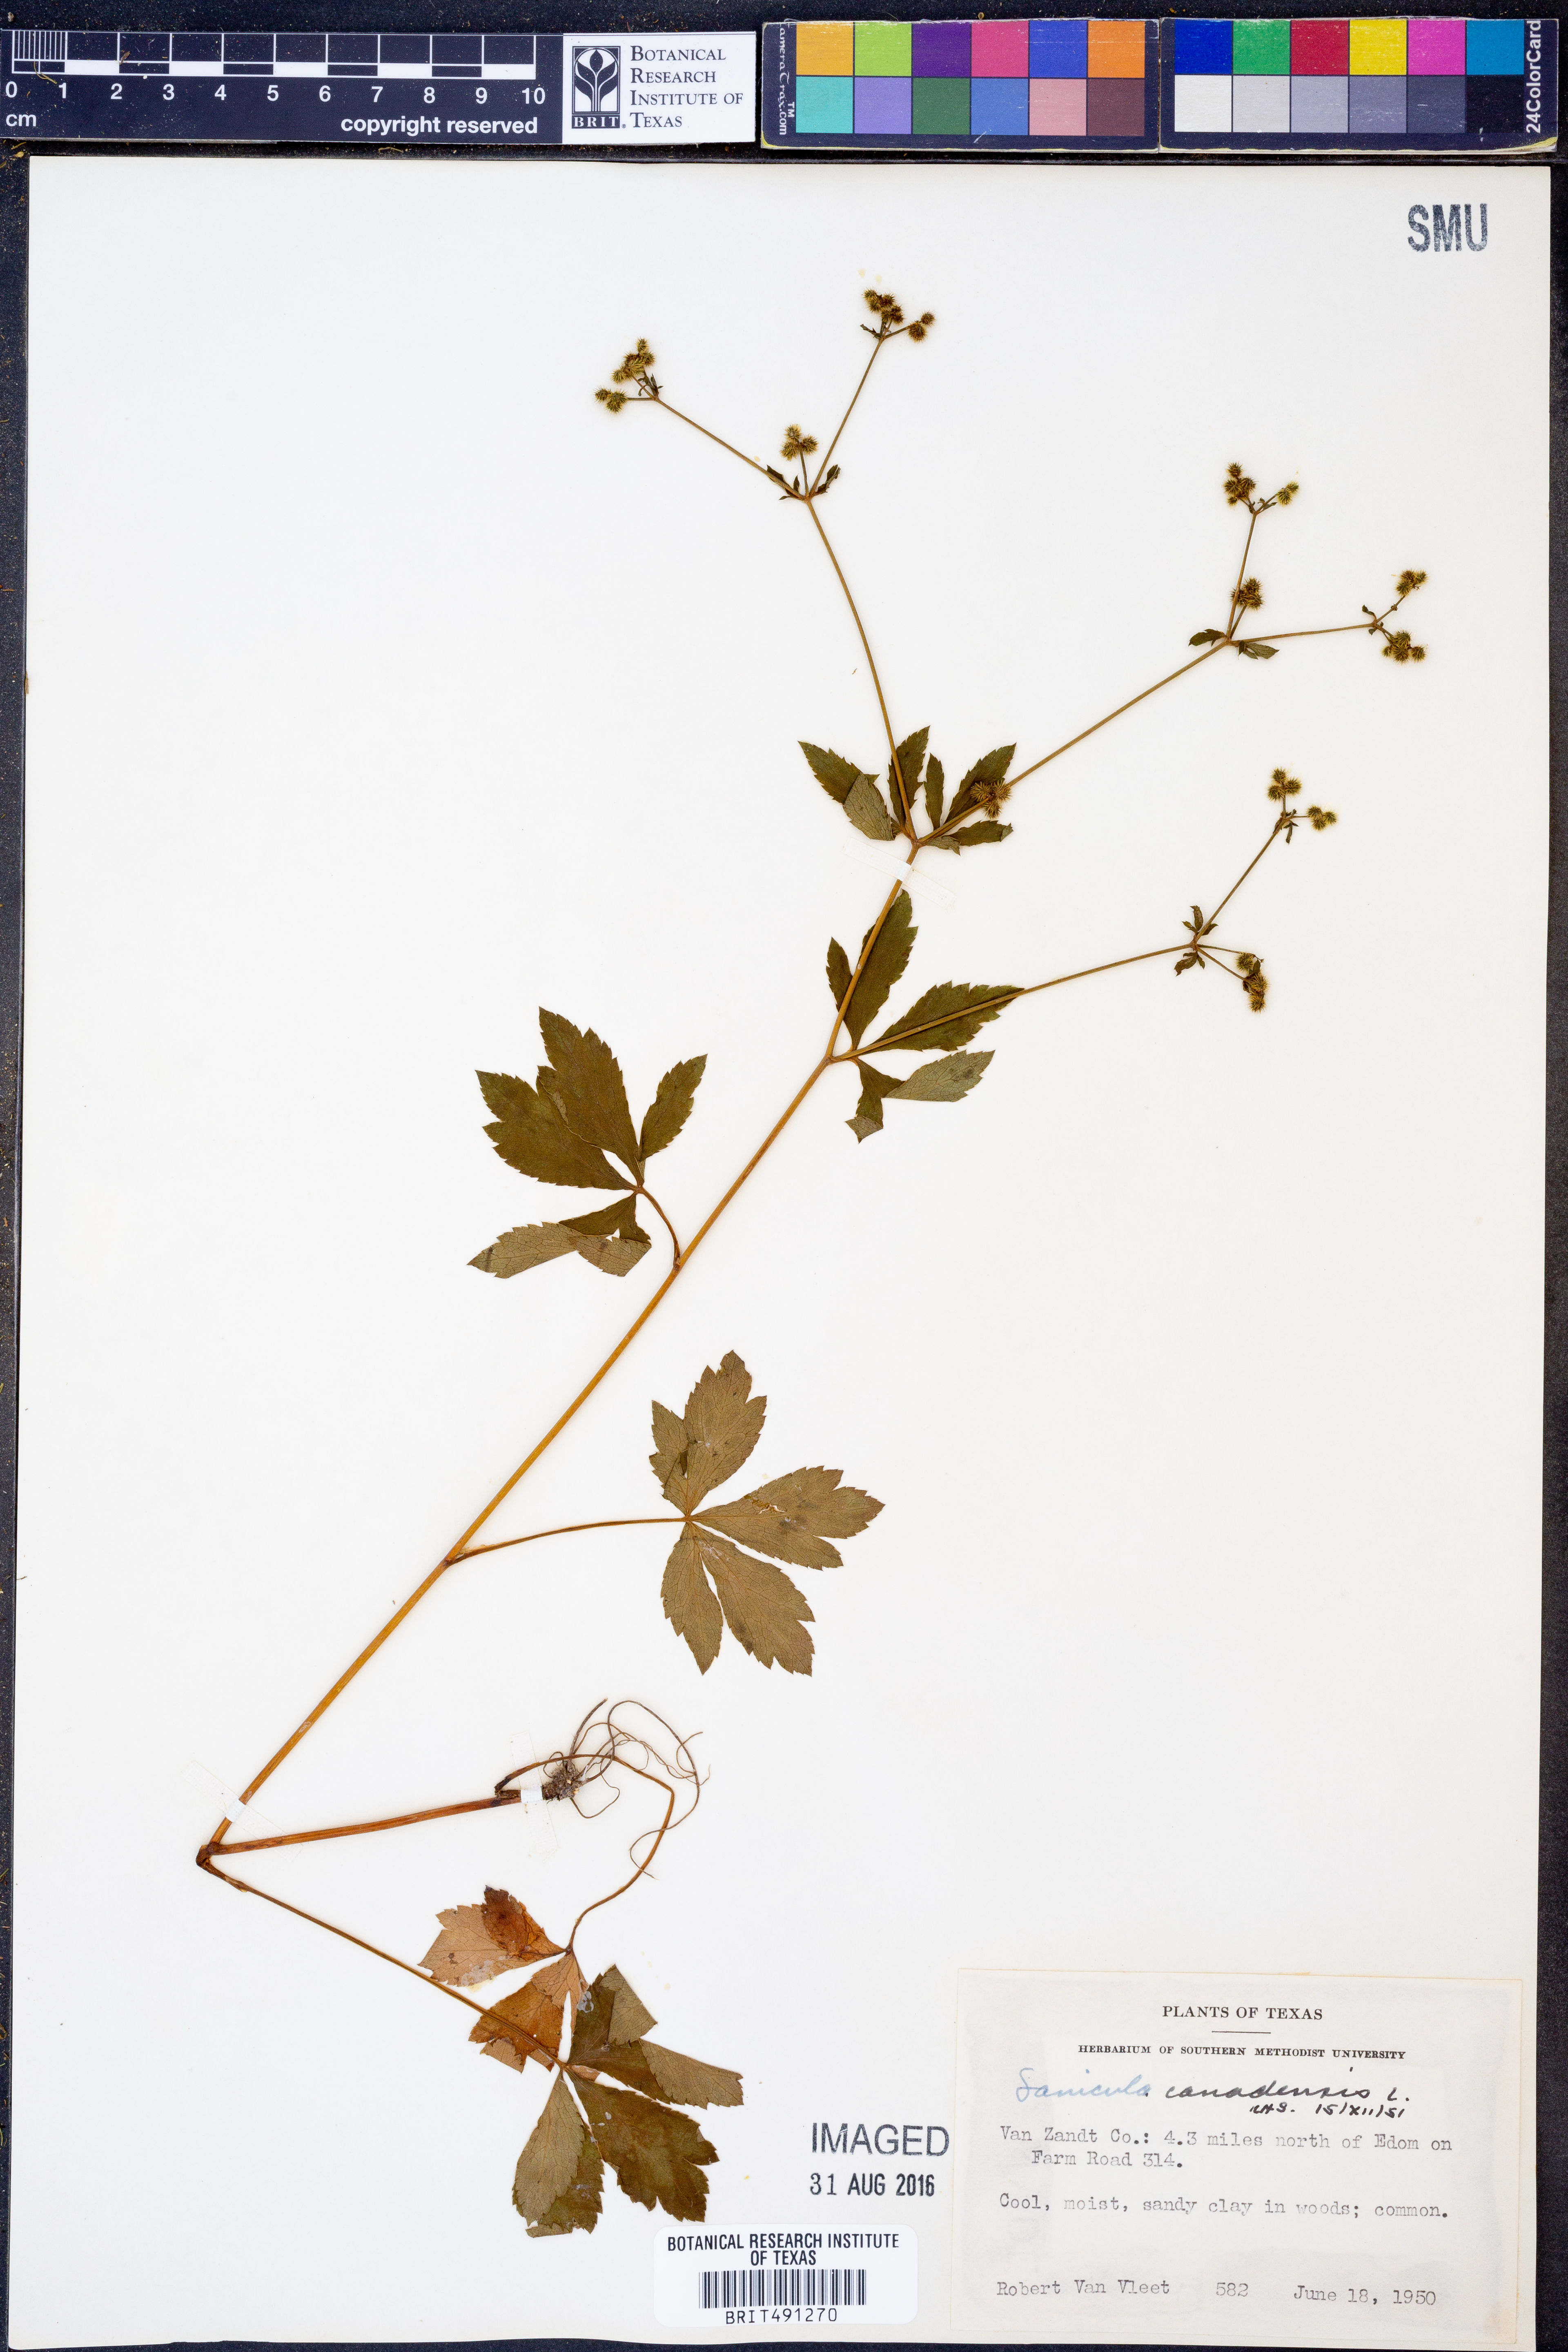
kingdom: Plantae
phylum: Tracheophyta
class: Magnoliopsida
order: Apiales
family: Apiaceae
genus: Sanicula
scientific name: Sanicula canadensis
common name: Canada sanicle
